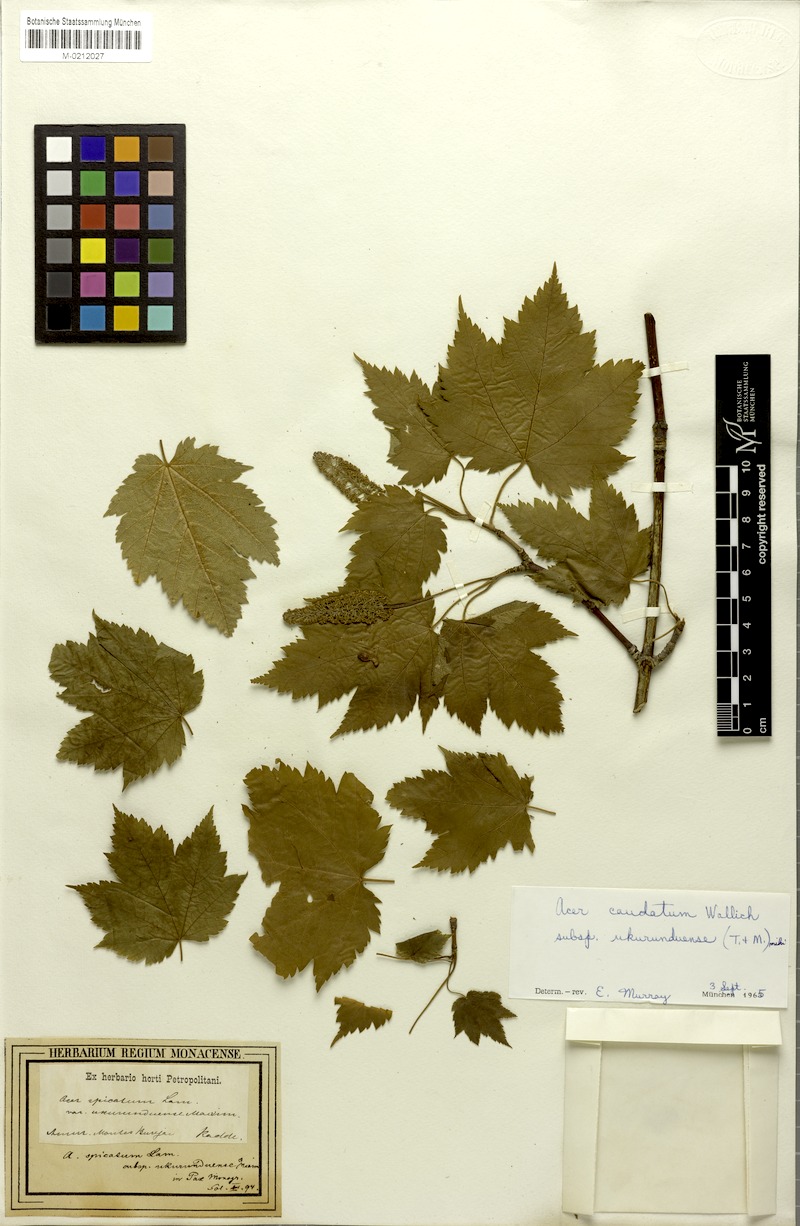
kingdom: Plantae
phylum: Tracheophyta
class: Magnoliopsida
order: Sapindales
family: Sapindaceae
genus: Acer
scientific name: Acer caudatum
